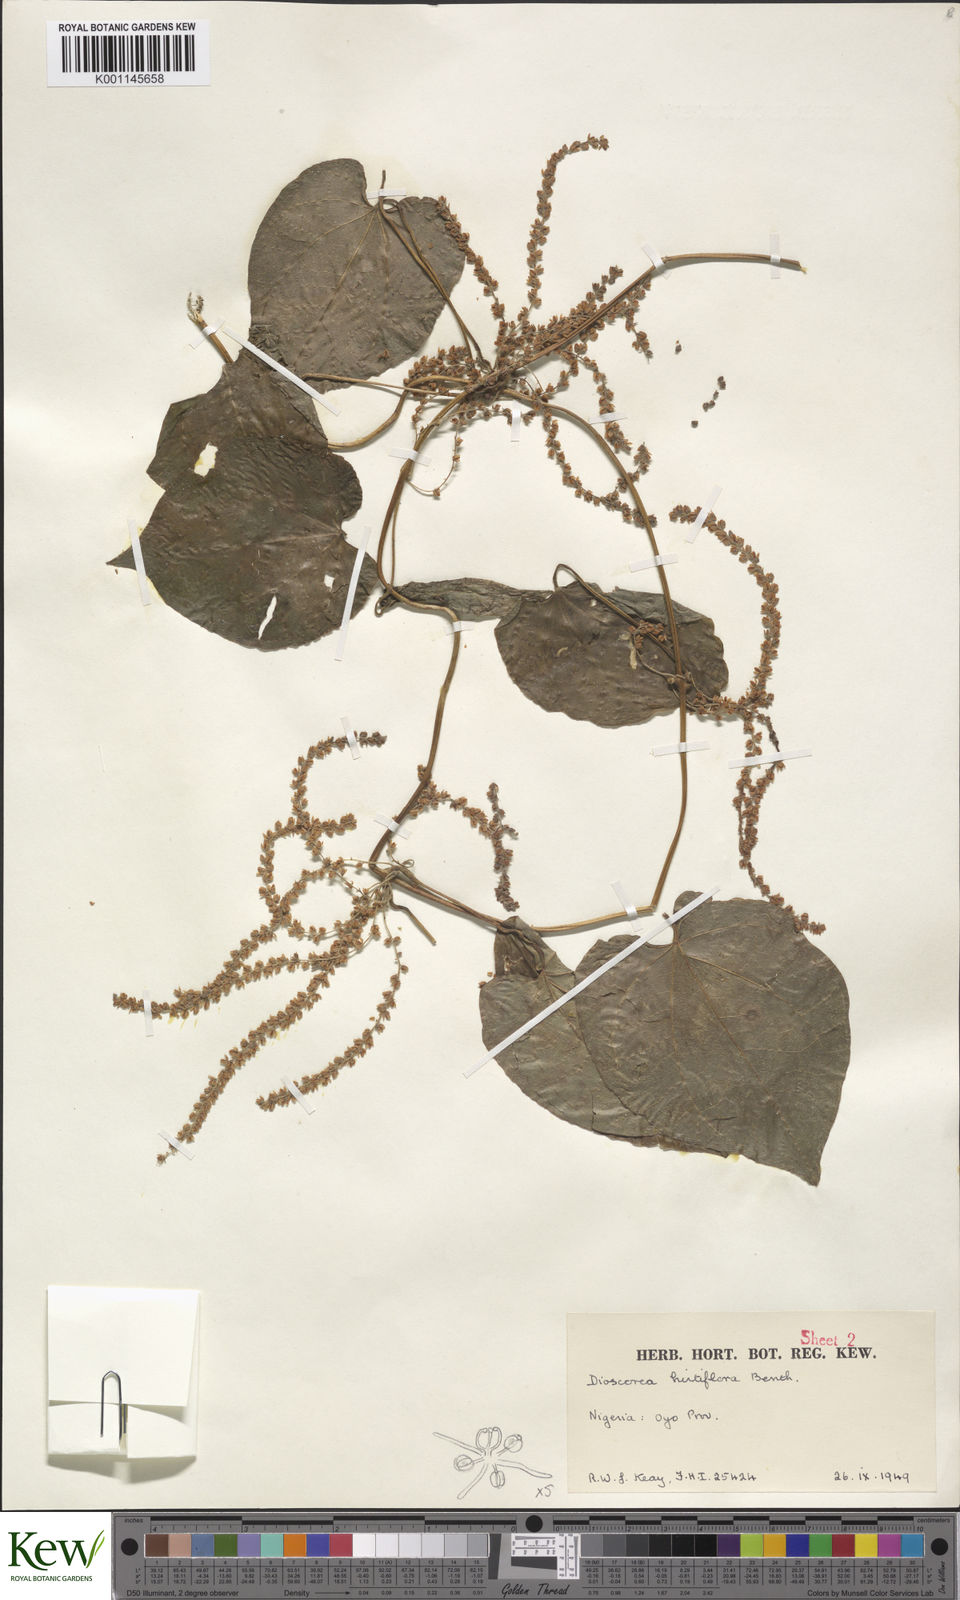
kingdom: Plantae
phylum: Tracheophyta
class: Liliopsida
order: Dioscoreales
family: Dioscoreaceae
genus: Dioscorea
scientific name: Dioscorea hirtiflora
